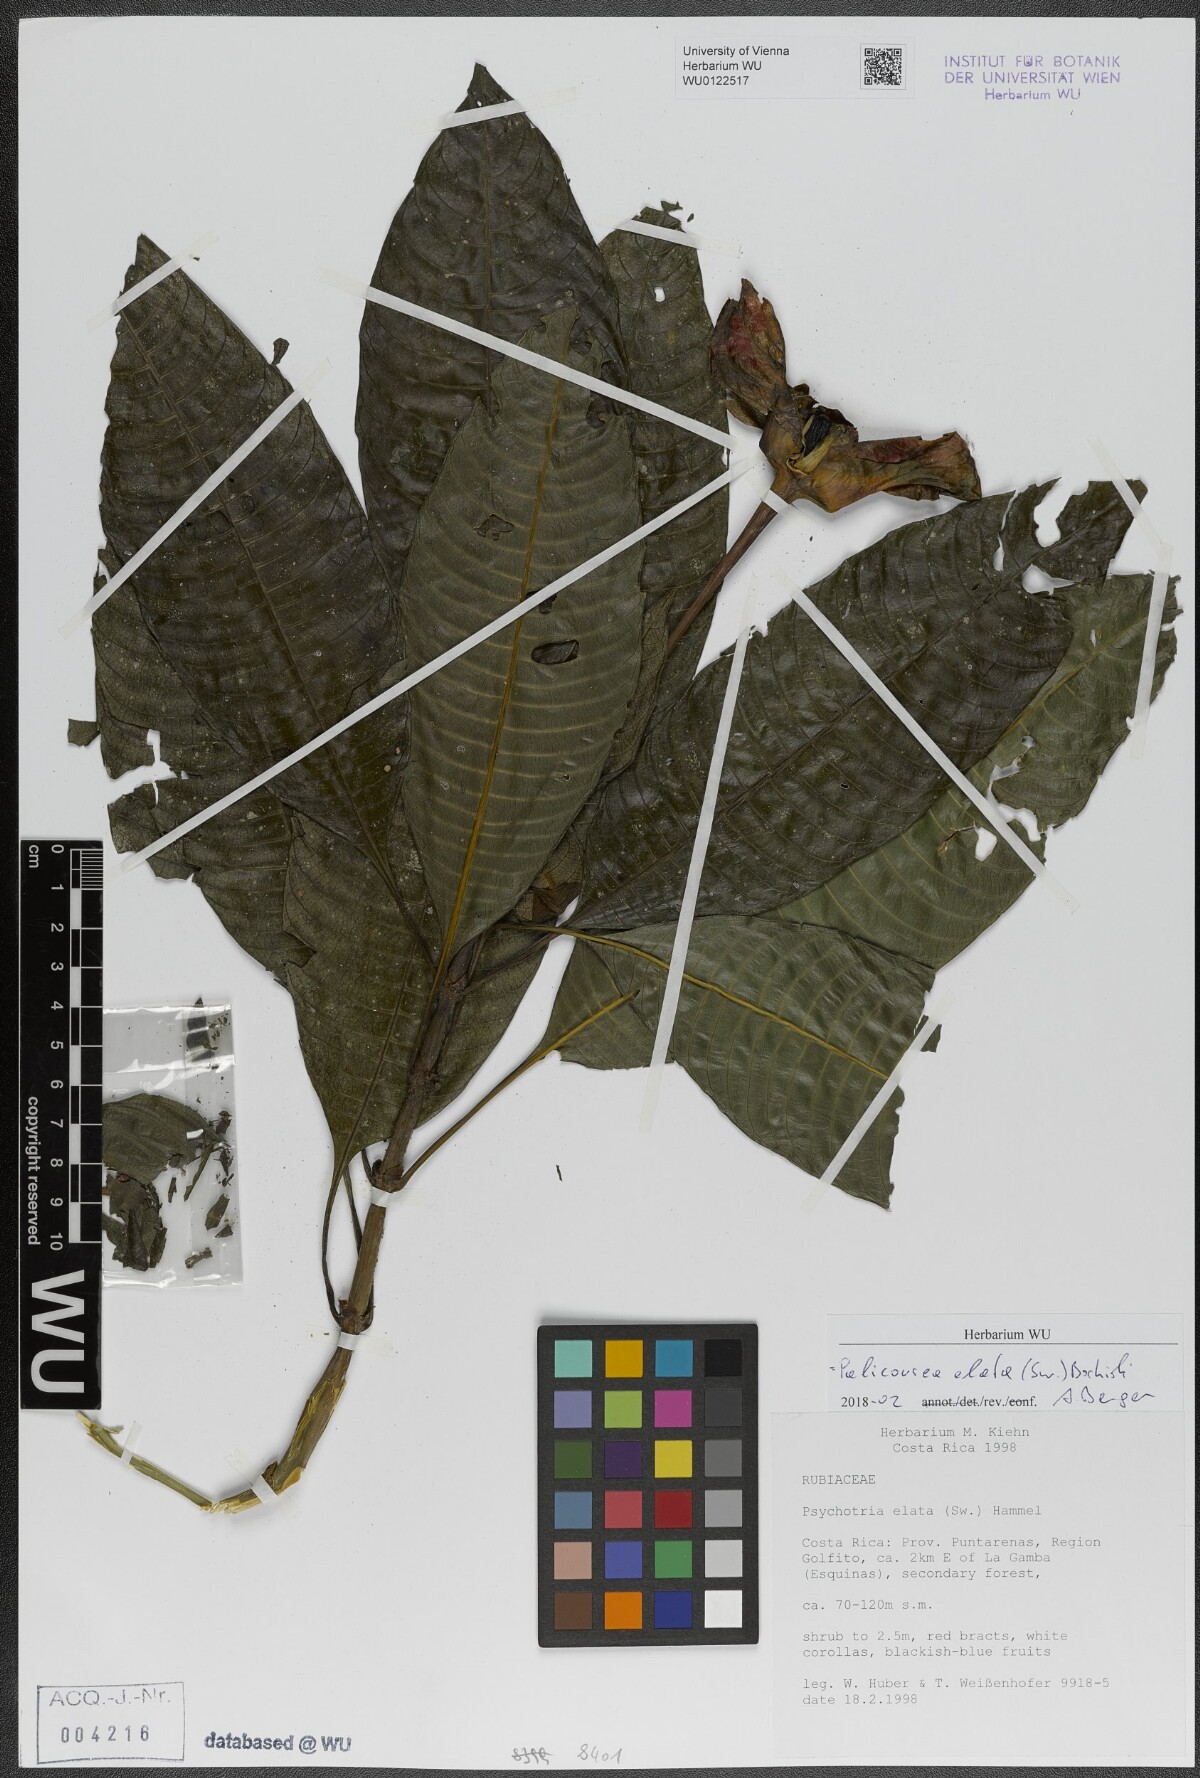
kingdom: Plantae
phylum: Tracheophyta
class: Magnoliopsida
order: Gentianales
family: Rubiaceae
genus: Palicourea
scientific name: Palicourea elata
